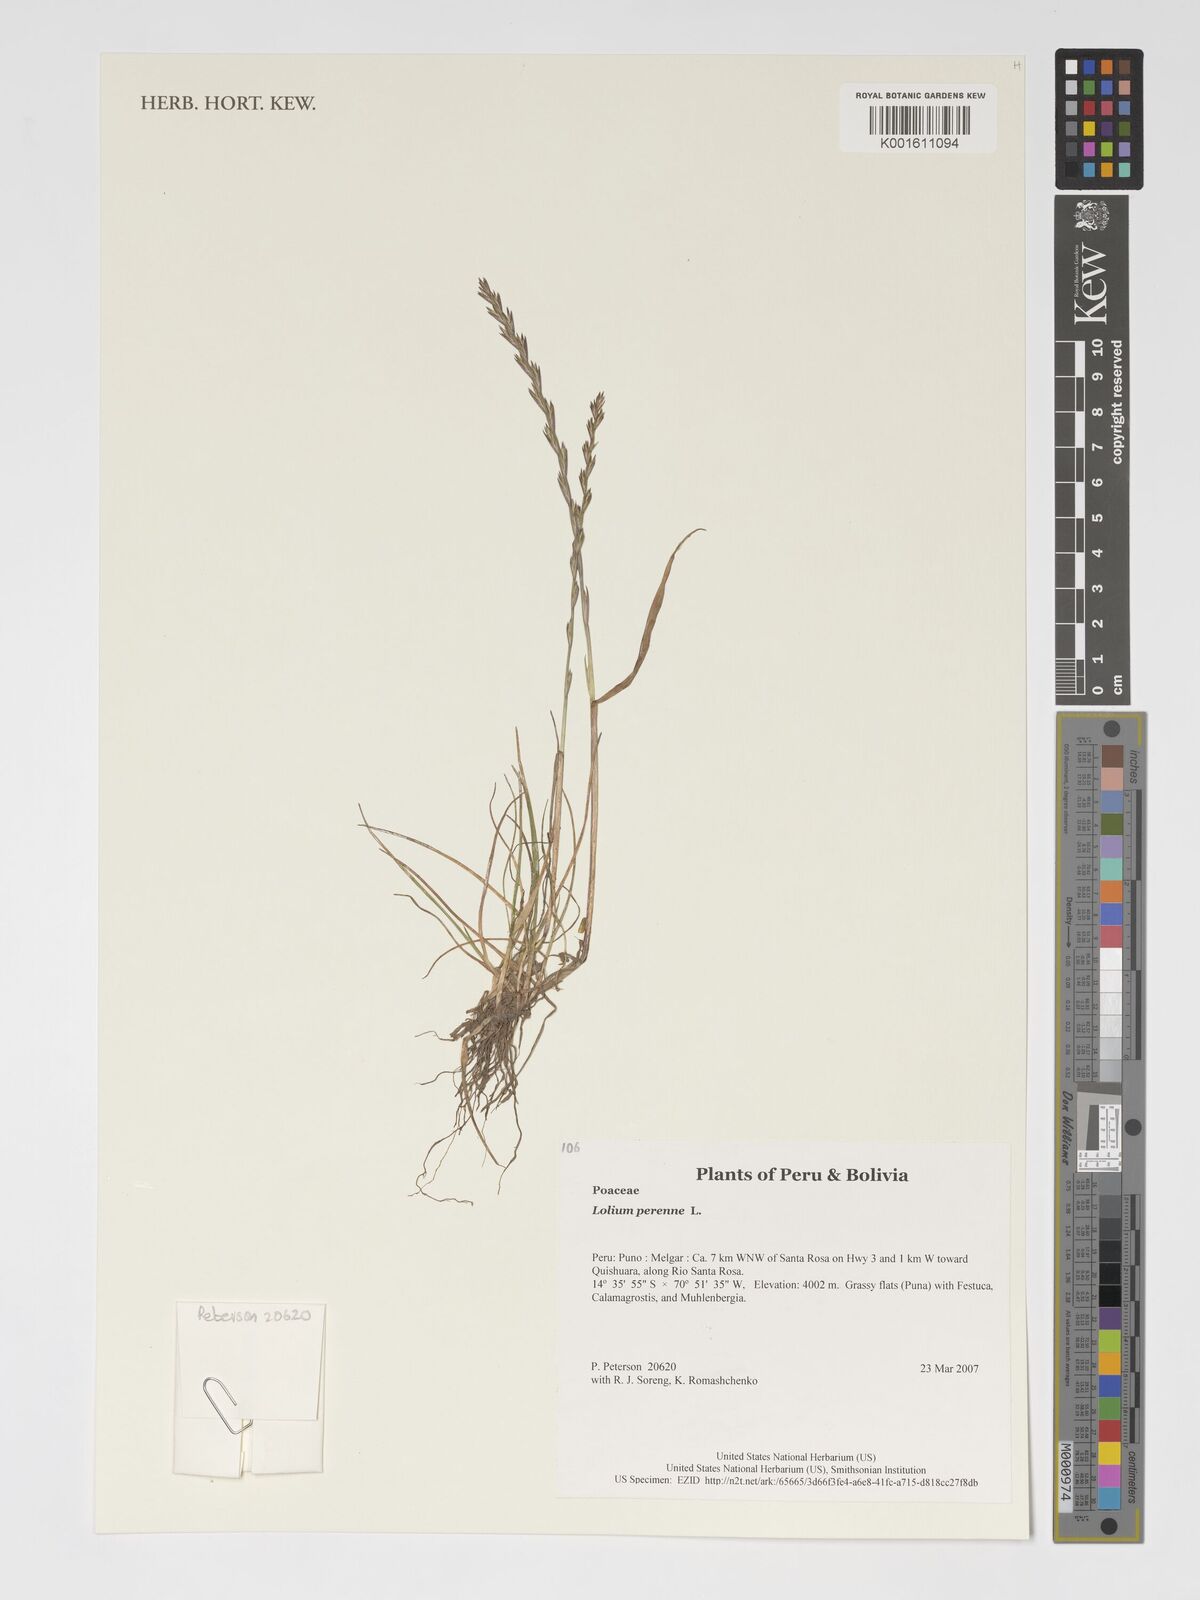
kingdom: Plantae
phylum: Tracheophyta
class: Liliopsida
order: Poales
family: Poaceae
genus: Lolium
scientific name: Lolium perenne
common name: Perennial ryegrass
